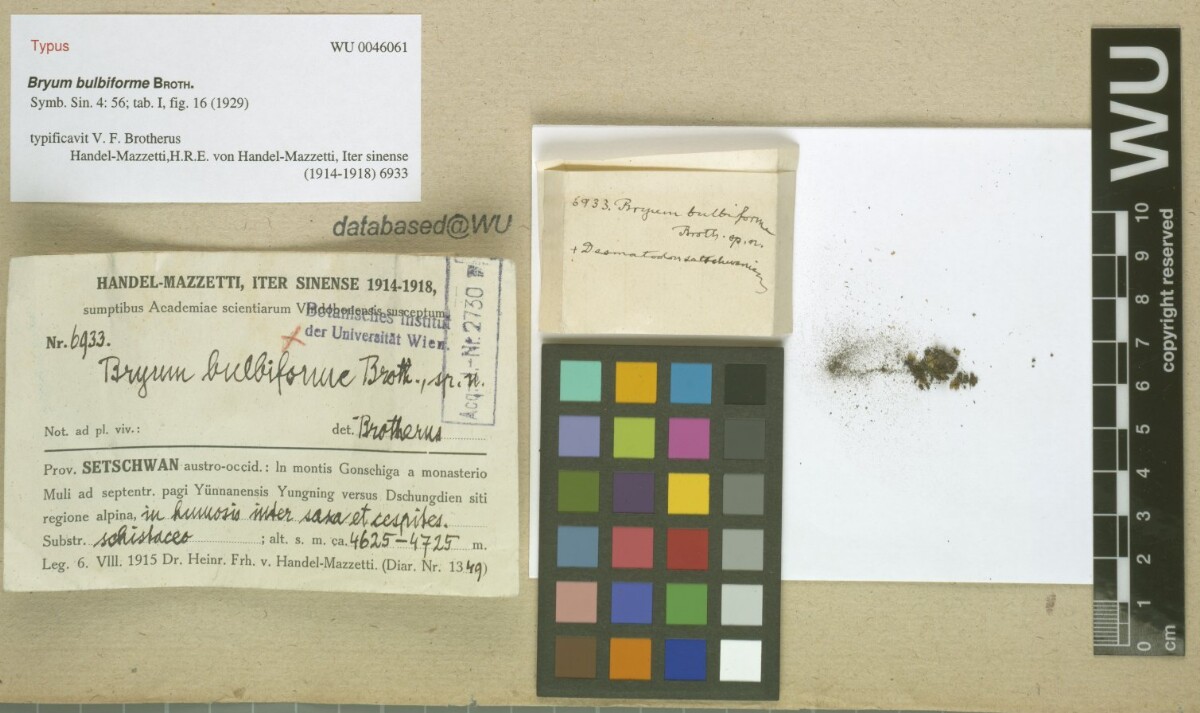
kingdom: Plantae
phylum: Bryophyta
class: Polytrichopsida
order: Oedipodiales
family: Oedipodiaceae
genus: Oedipodium
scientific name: Oedipodium griffithianum
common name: Gouty-moss
